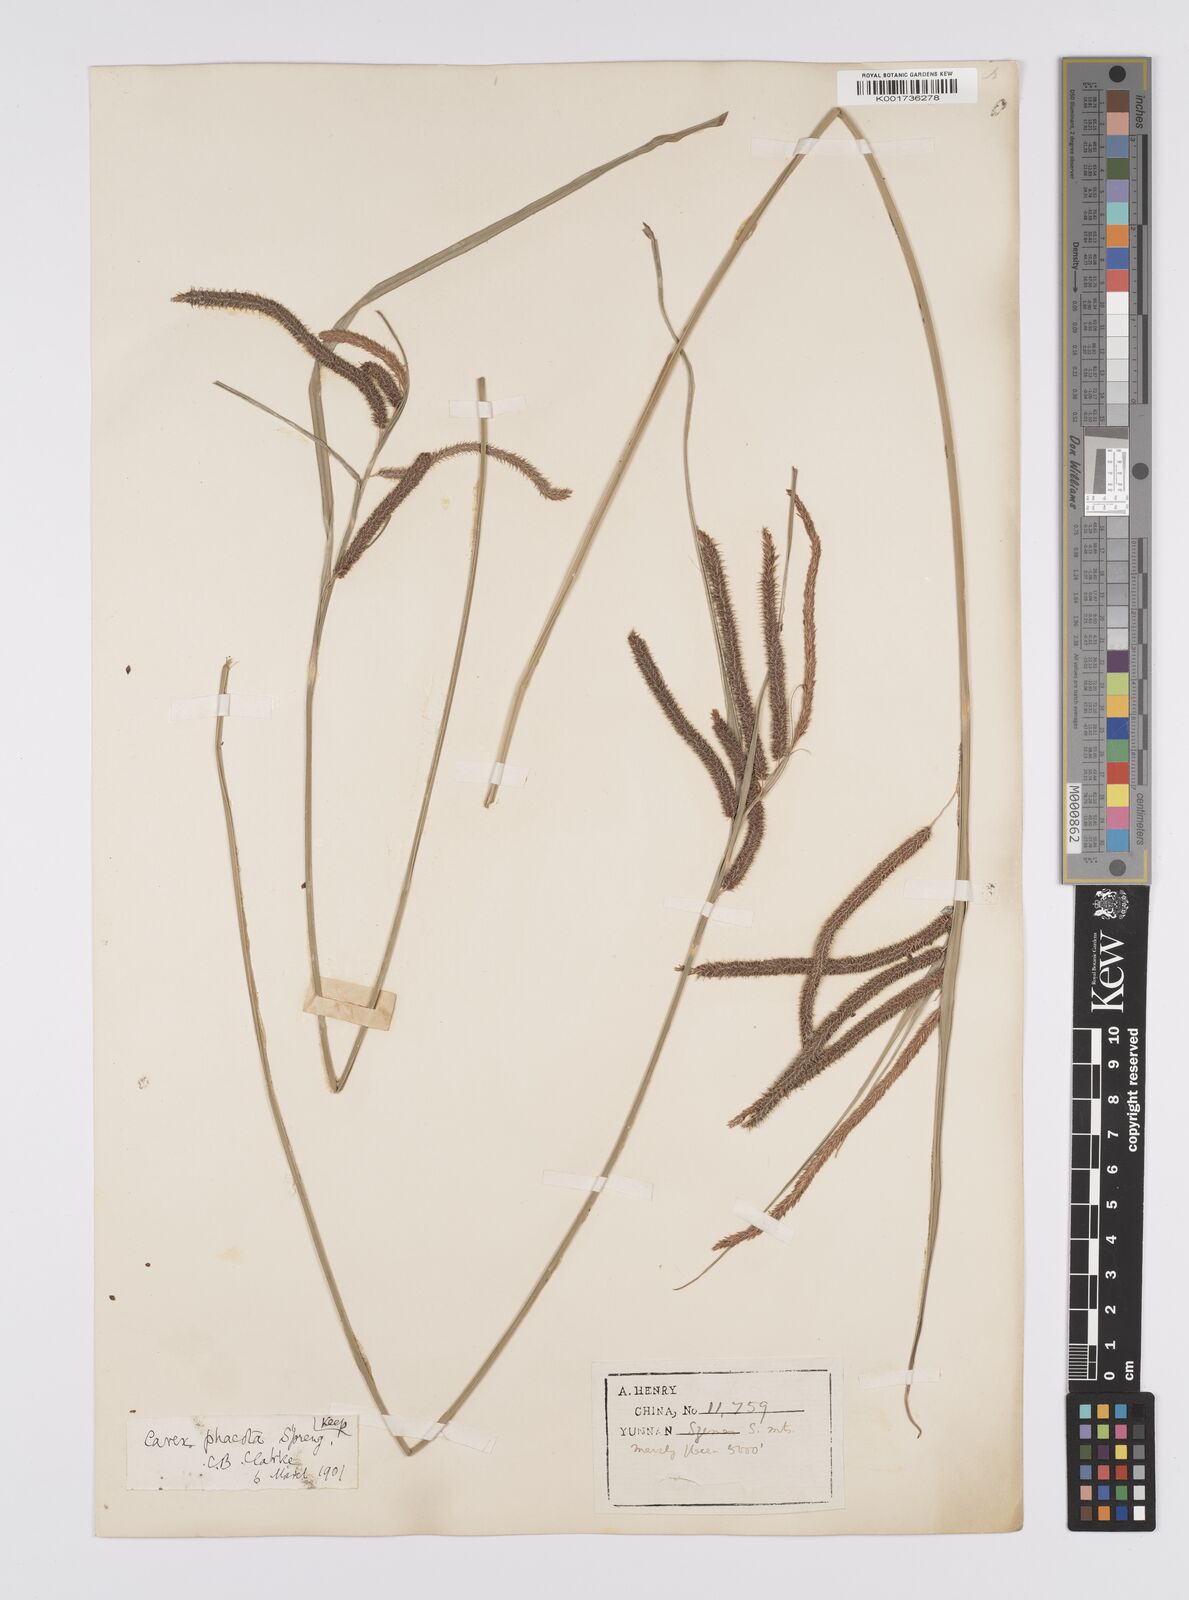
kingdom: Plantae
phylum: Tracheophyta
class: Liliopsida
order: Poales
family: Cyperaceae
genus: Carex
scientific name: Carex phacota
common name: Lakeshore sedge
